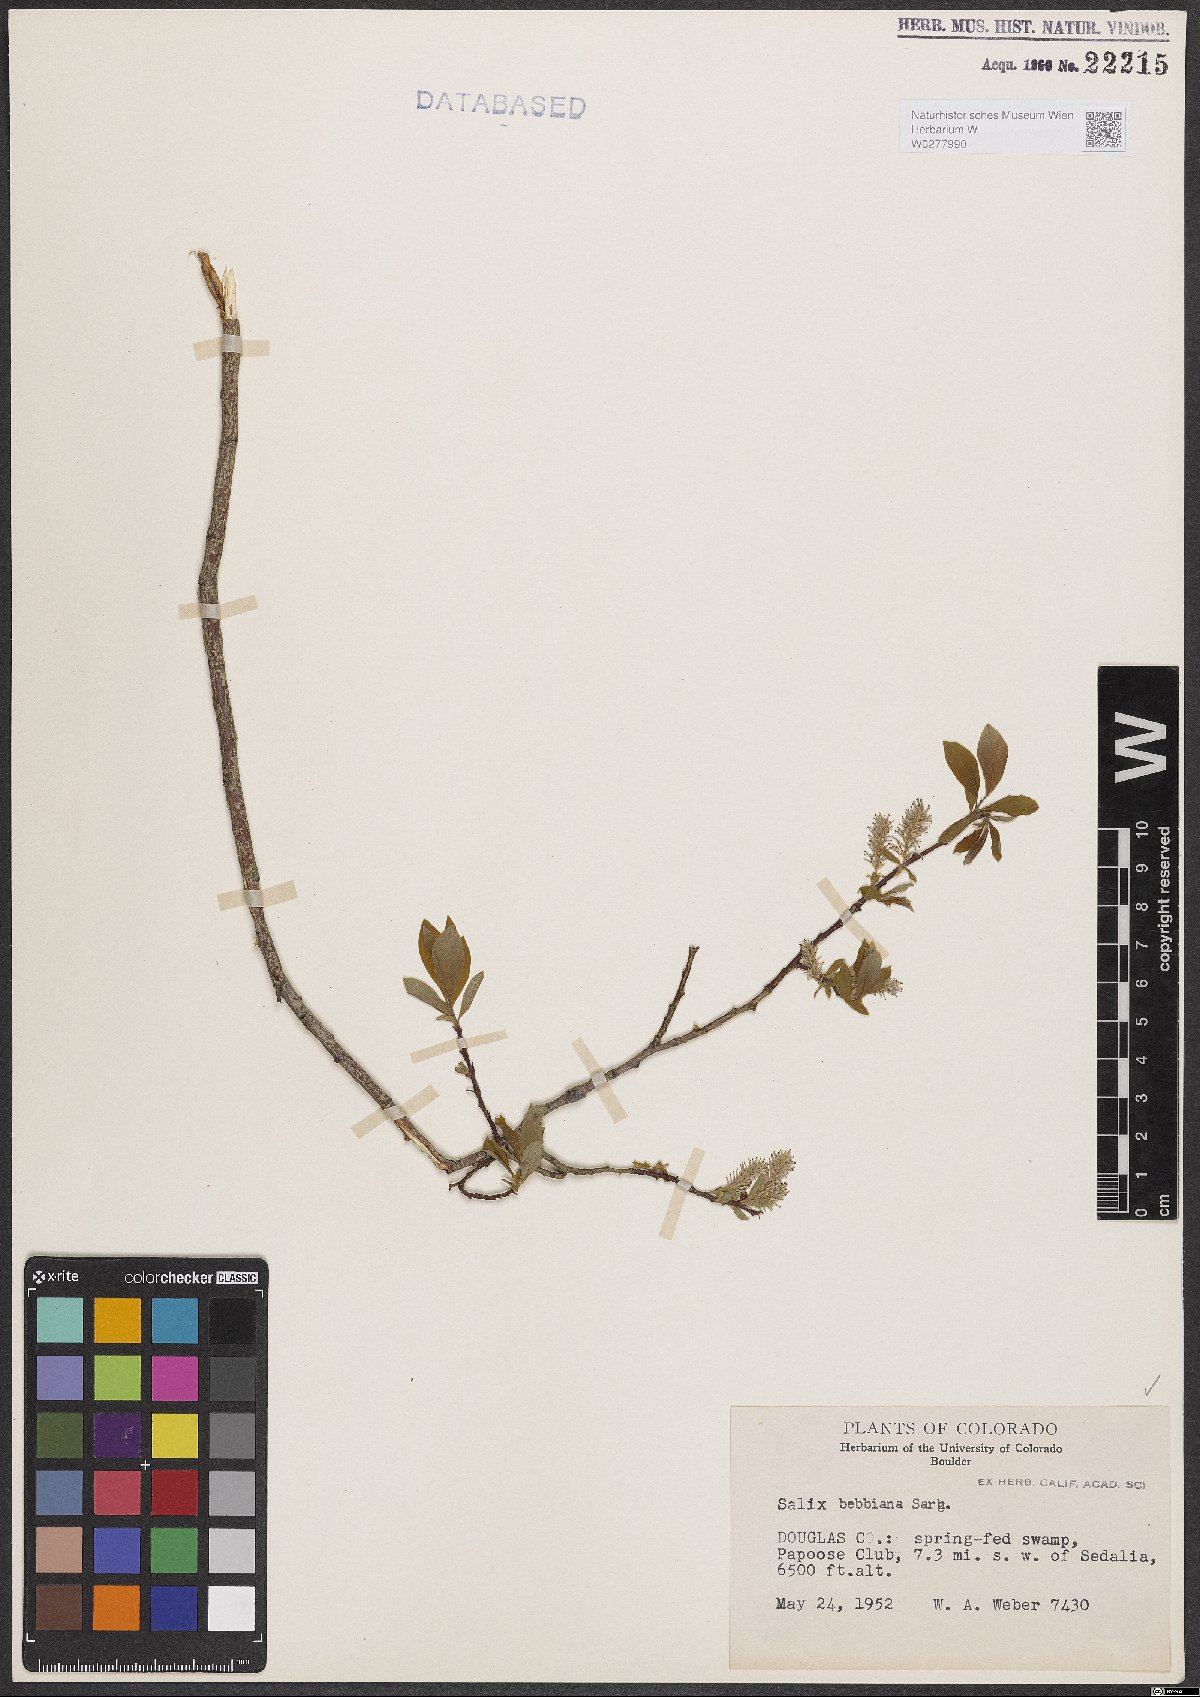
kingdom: Plantae
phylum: Tracheophyta
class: Magnoliopsida
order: Malpighiales
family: Salicaceae
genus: Salix
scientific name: Salix bebbiana
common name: Bebb's willow
